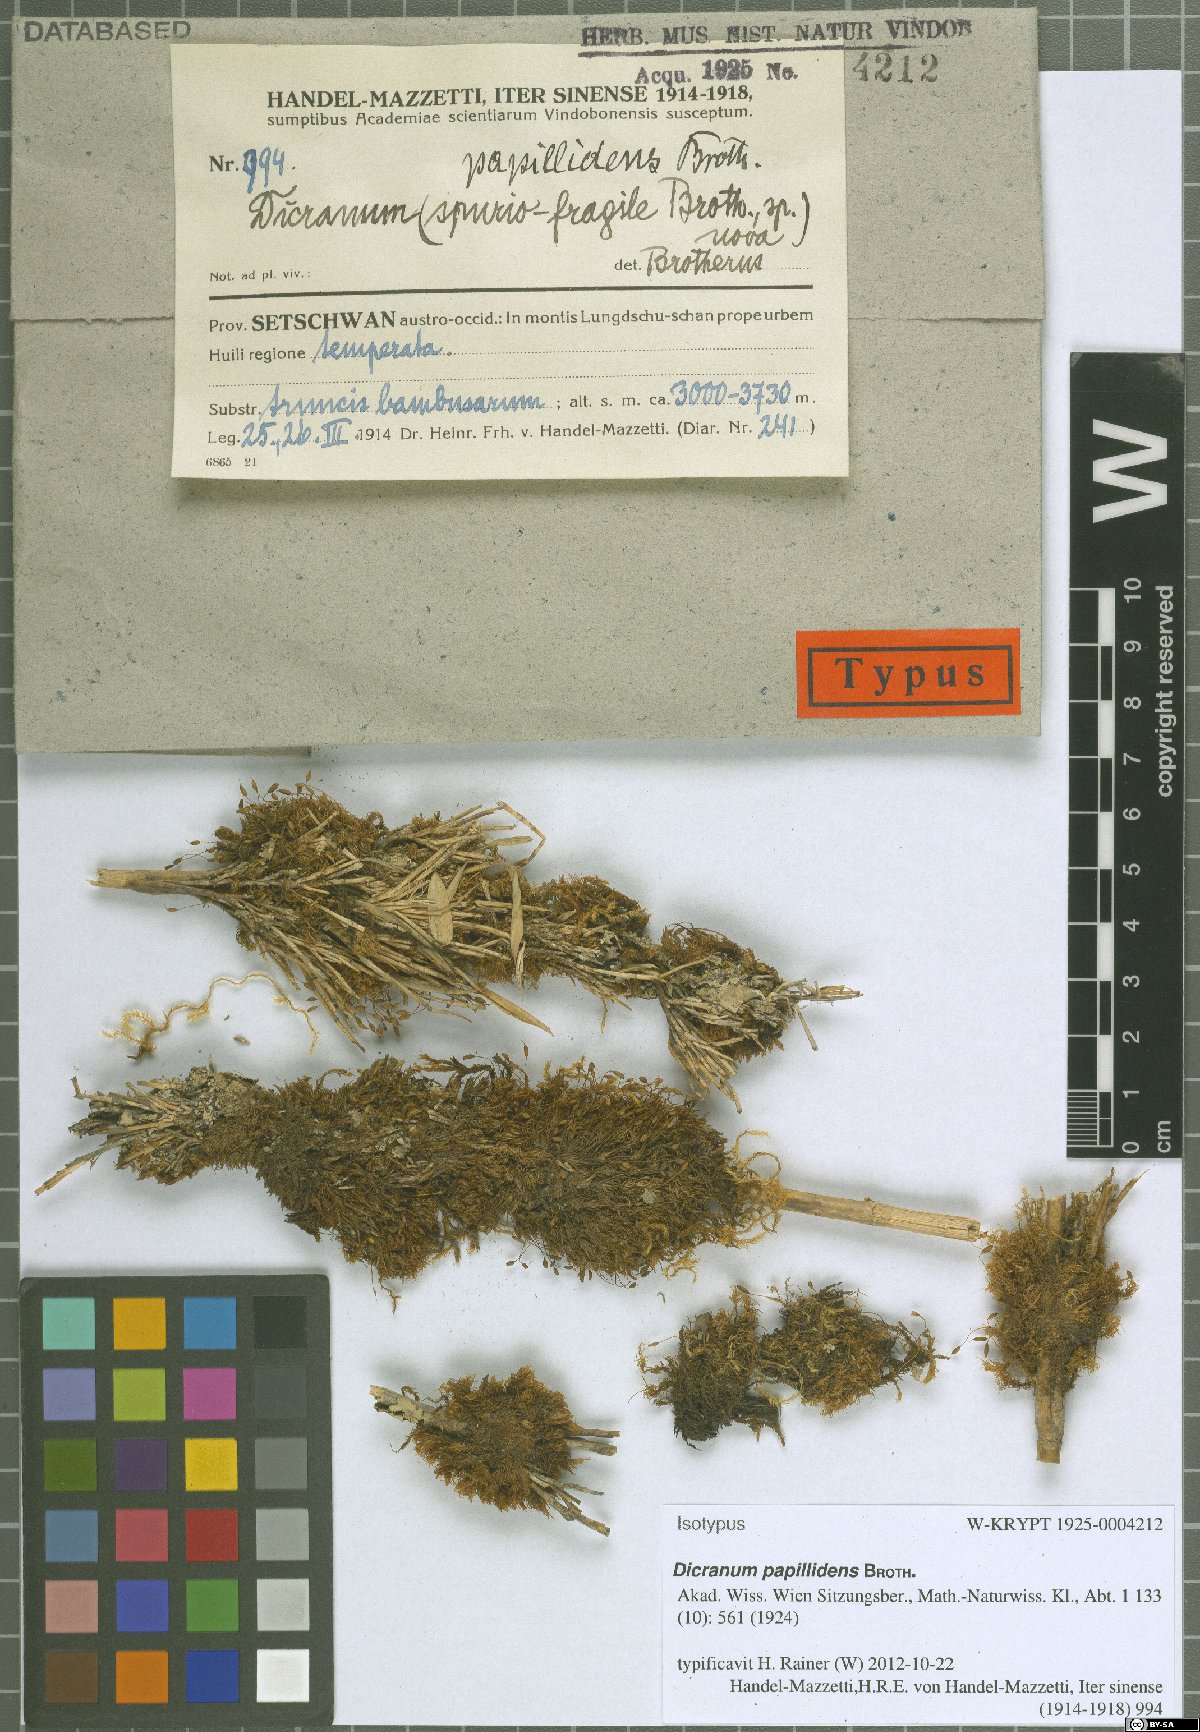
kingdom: Plantae
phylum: Bryophyta
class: Bryopsida
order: Dicranales
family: Dicranaceae
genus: Dicranum
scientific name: Dicranum papillidens
